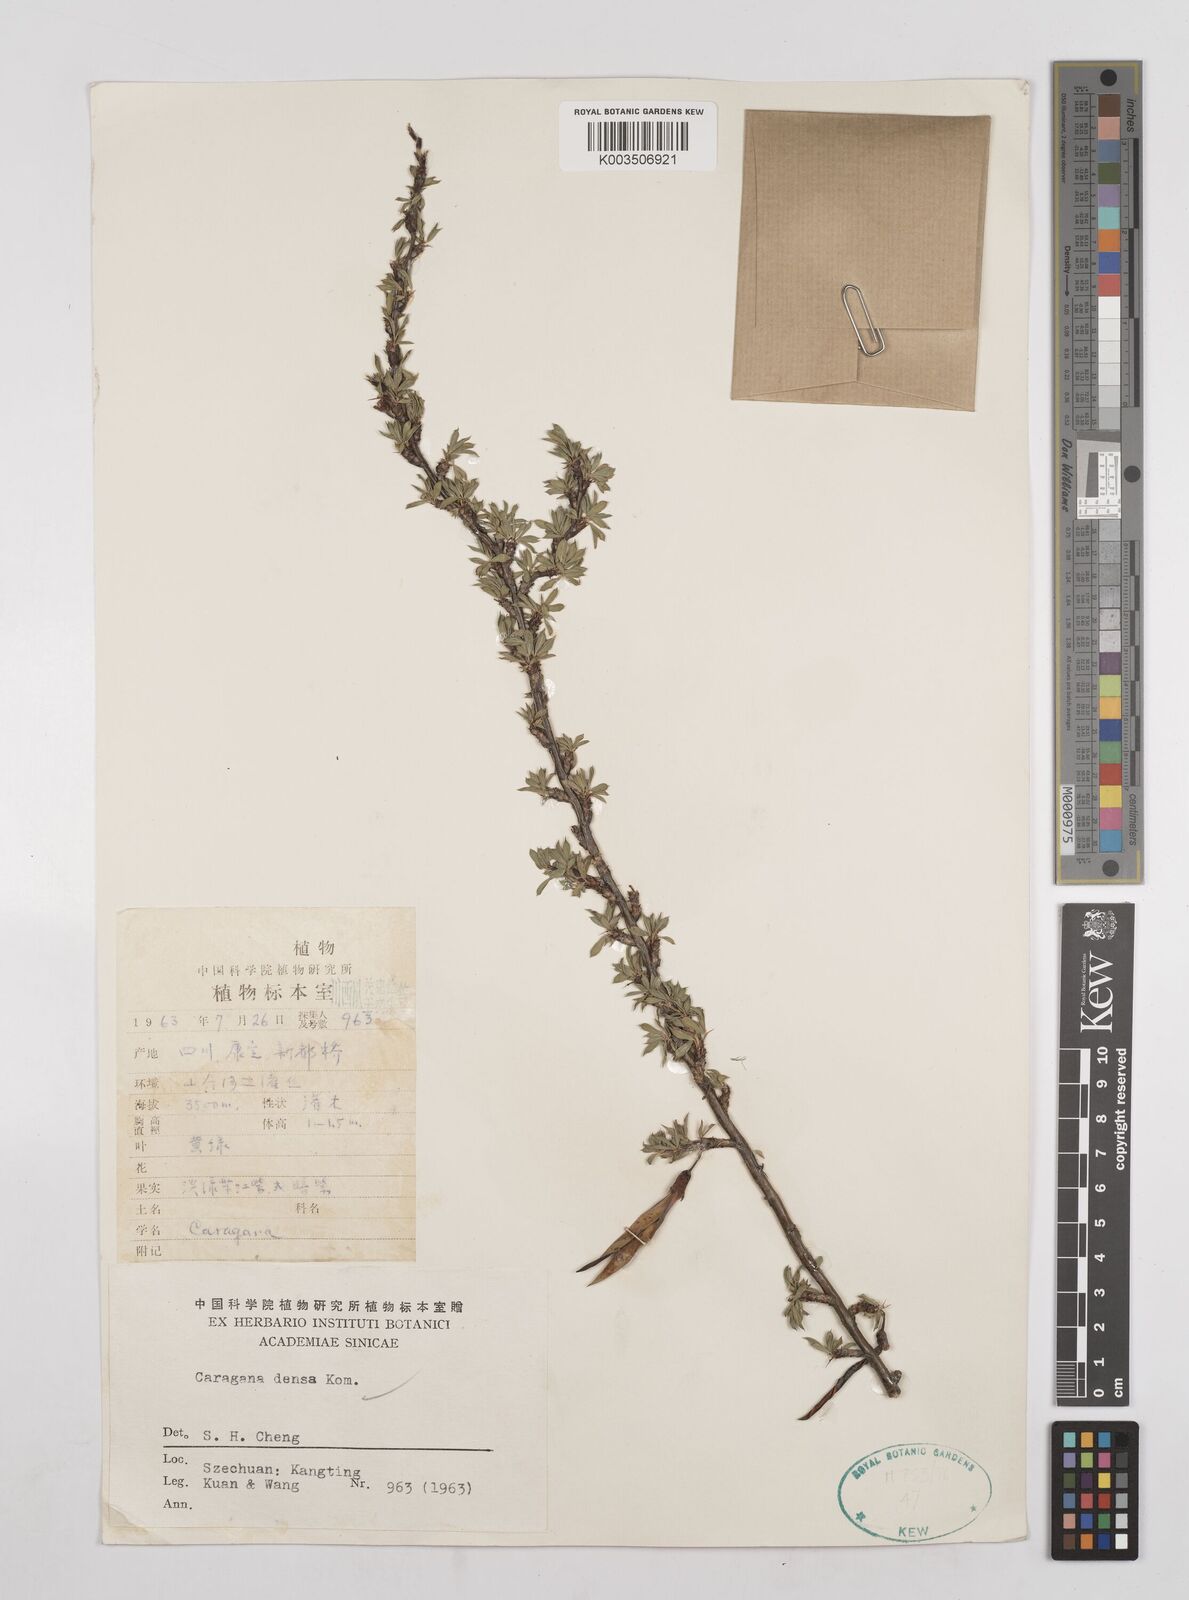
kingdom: Plantae
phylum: Tracheophyta
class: Magnoliopsida
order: Fabales
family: Fabaceae
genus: Caragana
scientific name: Caragana densa
